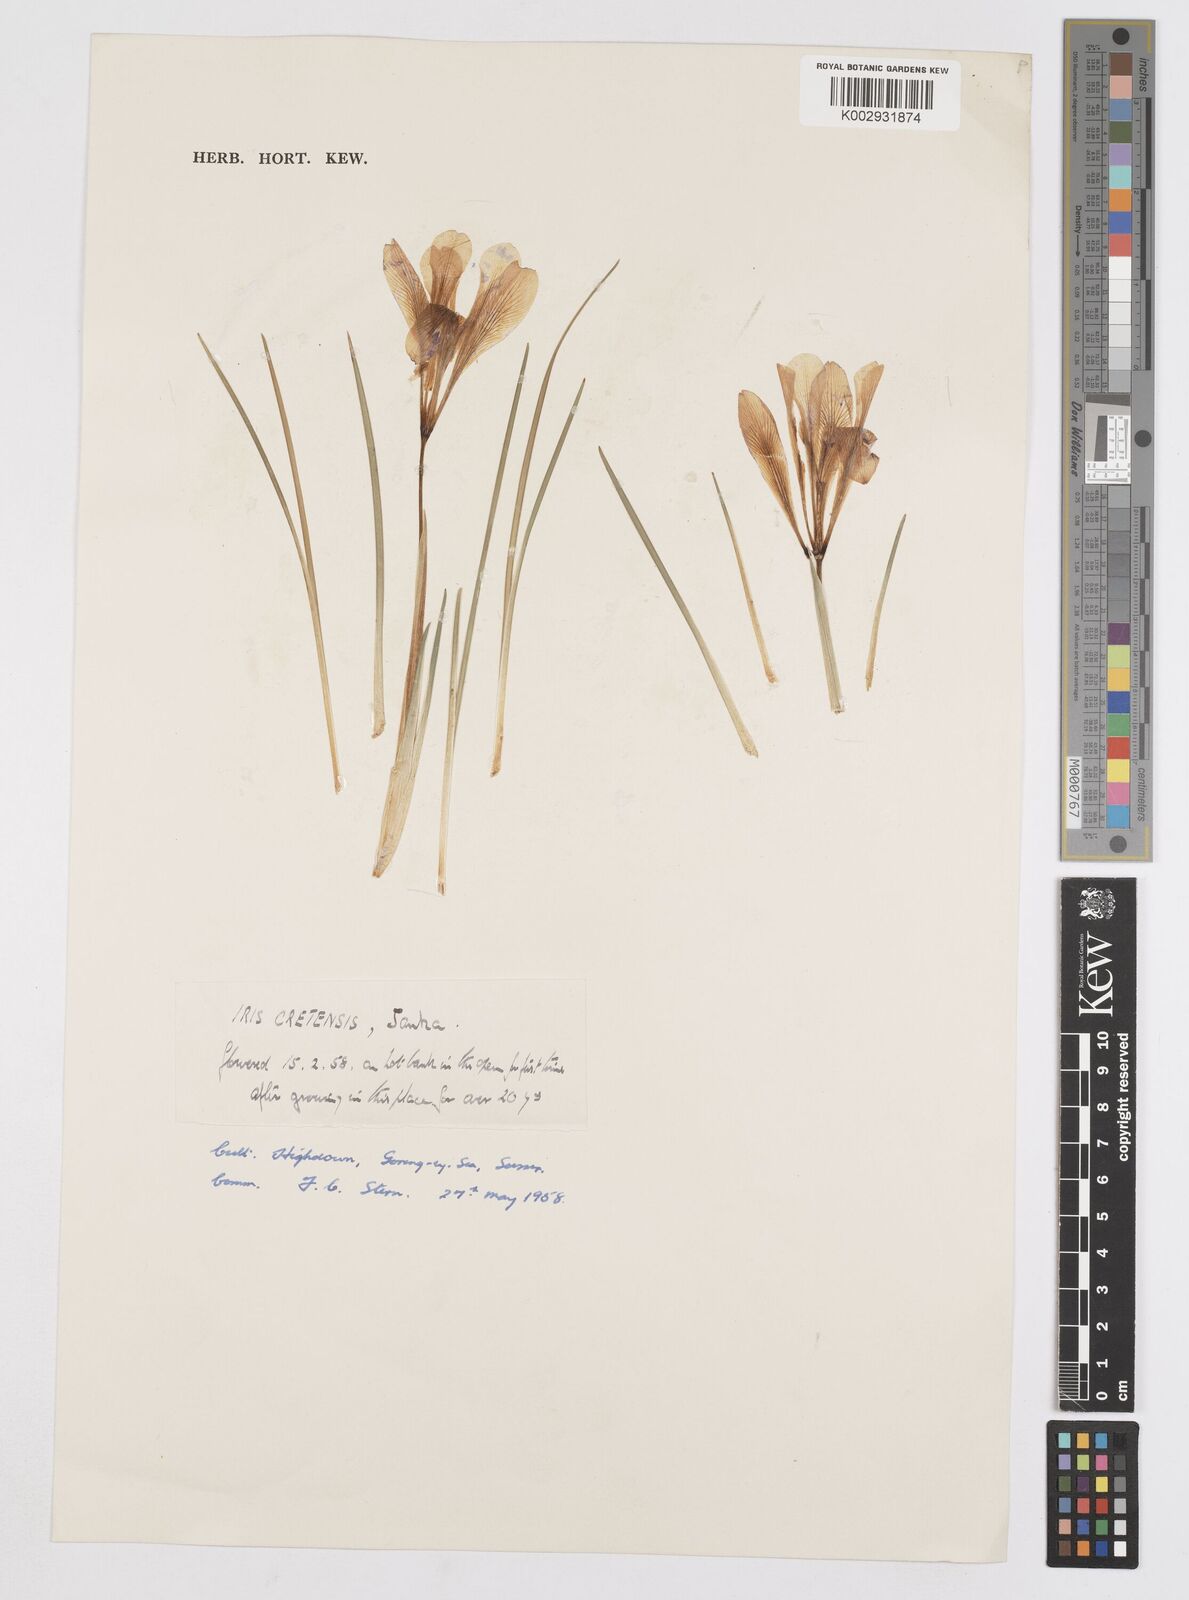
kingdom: Plantae
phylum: Tracheophyta
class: Liliopsida
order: Asparagales
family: Iridaceae
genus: Iris
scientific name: Iris unguicularis
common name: Algerian iris
